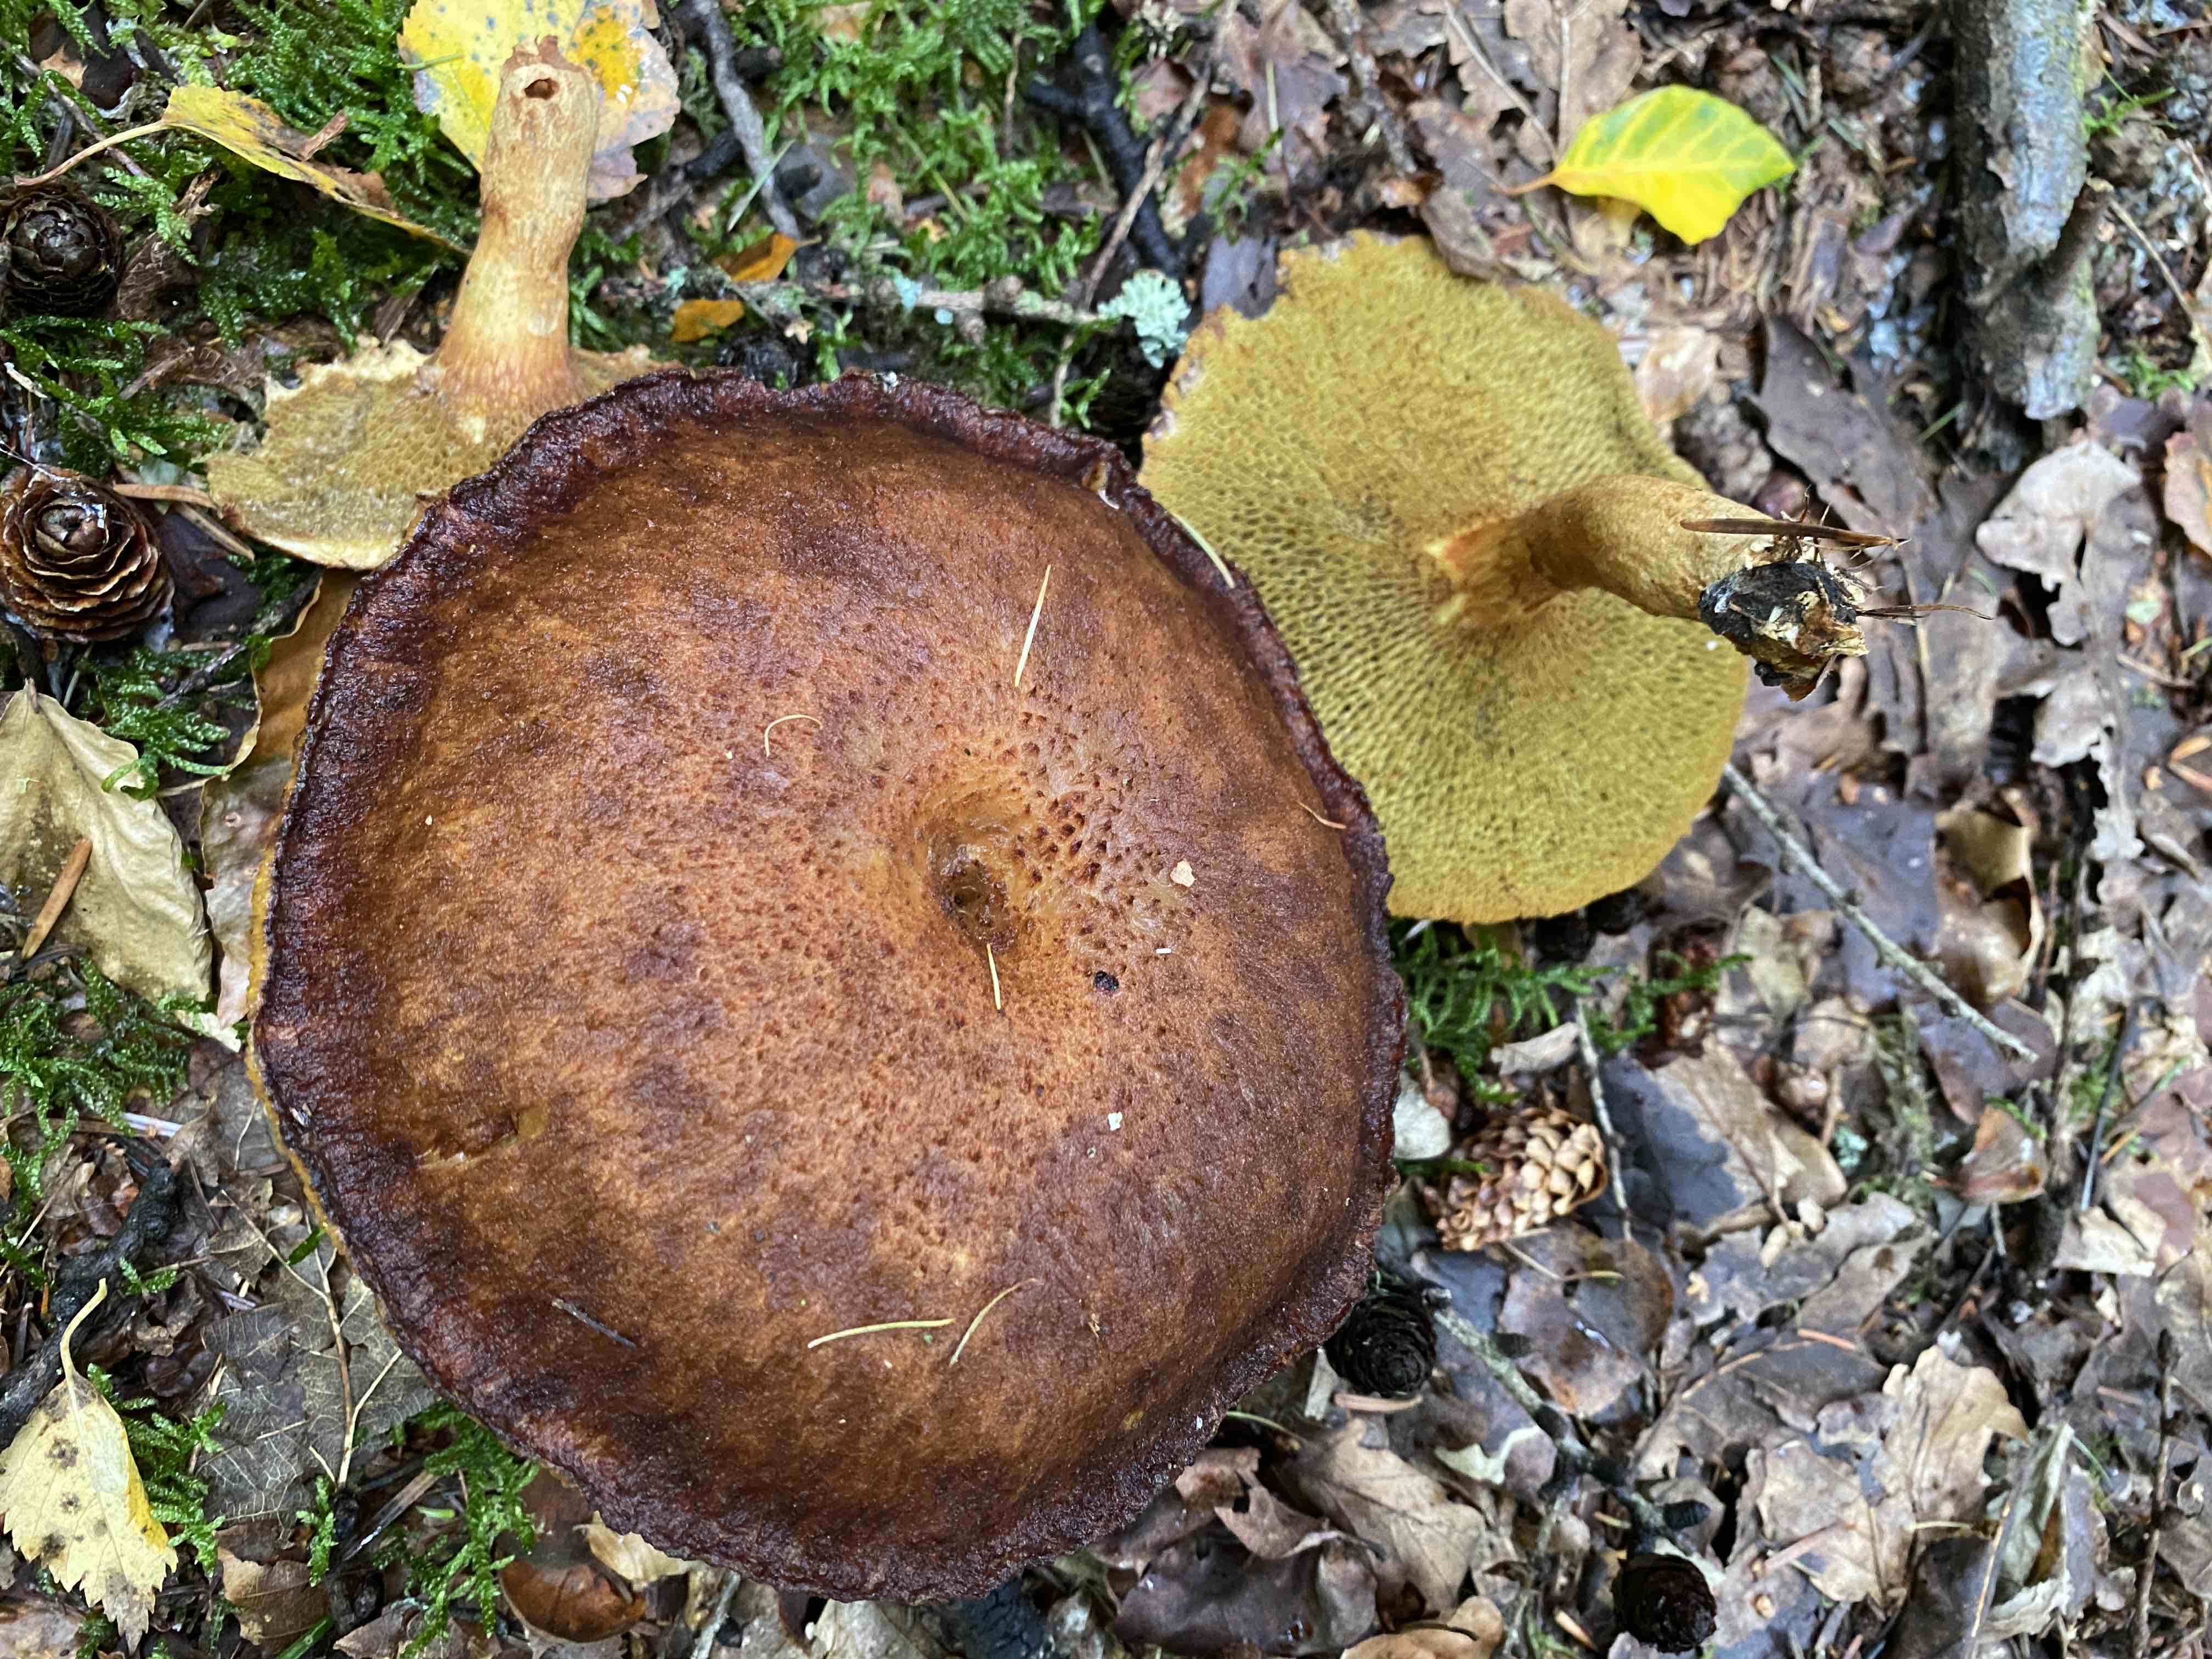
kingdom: Fungi
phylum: Basidiomycota
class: Agaricomycetes
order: Boletales
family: Suillaceae
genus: Suillus
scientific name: Suillus cavipes
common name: hulstokket slimrørhat
